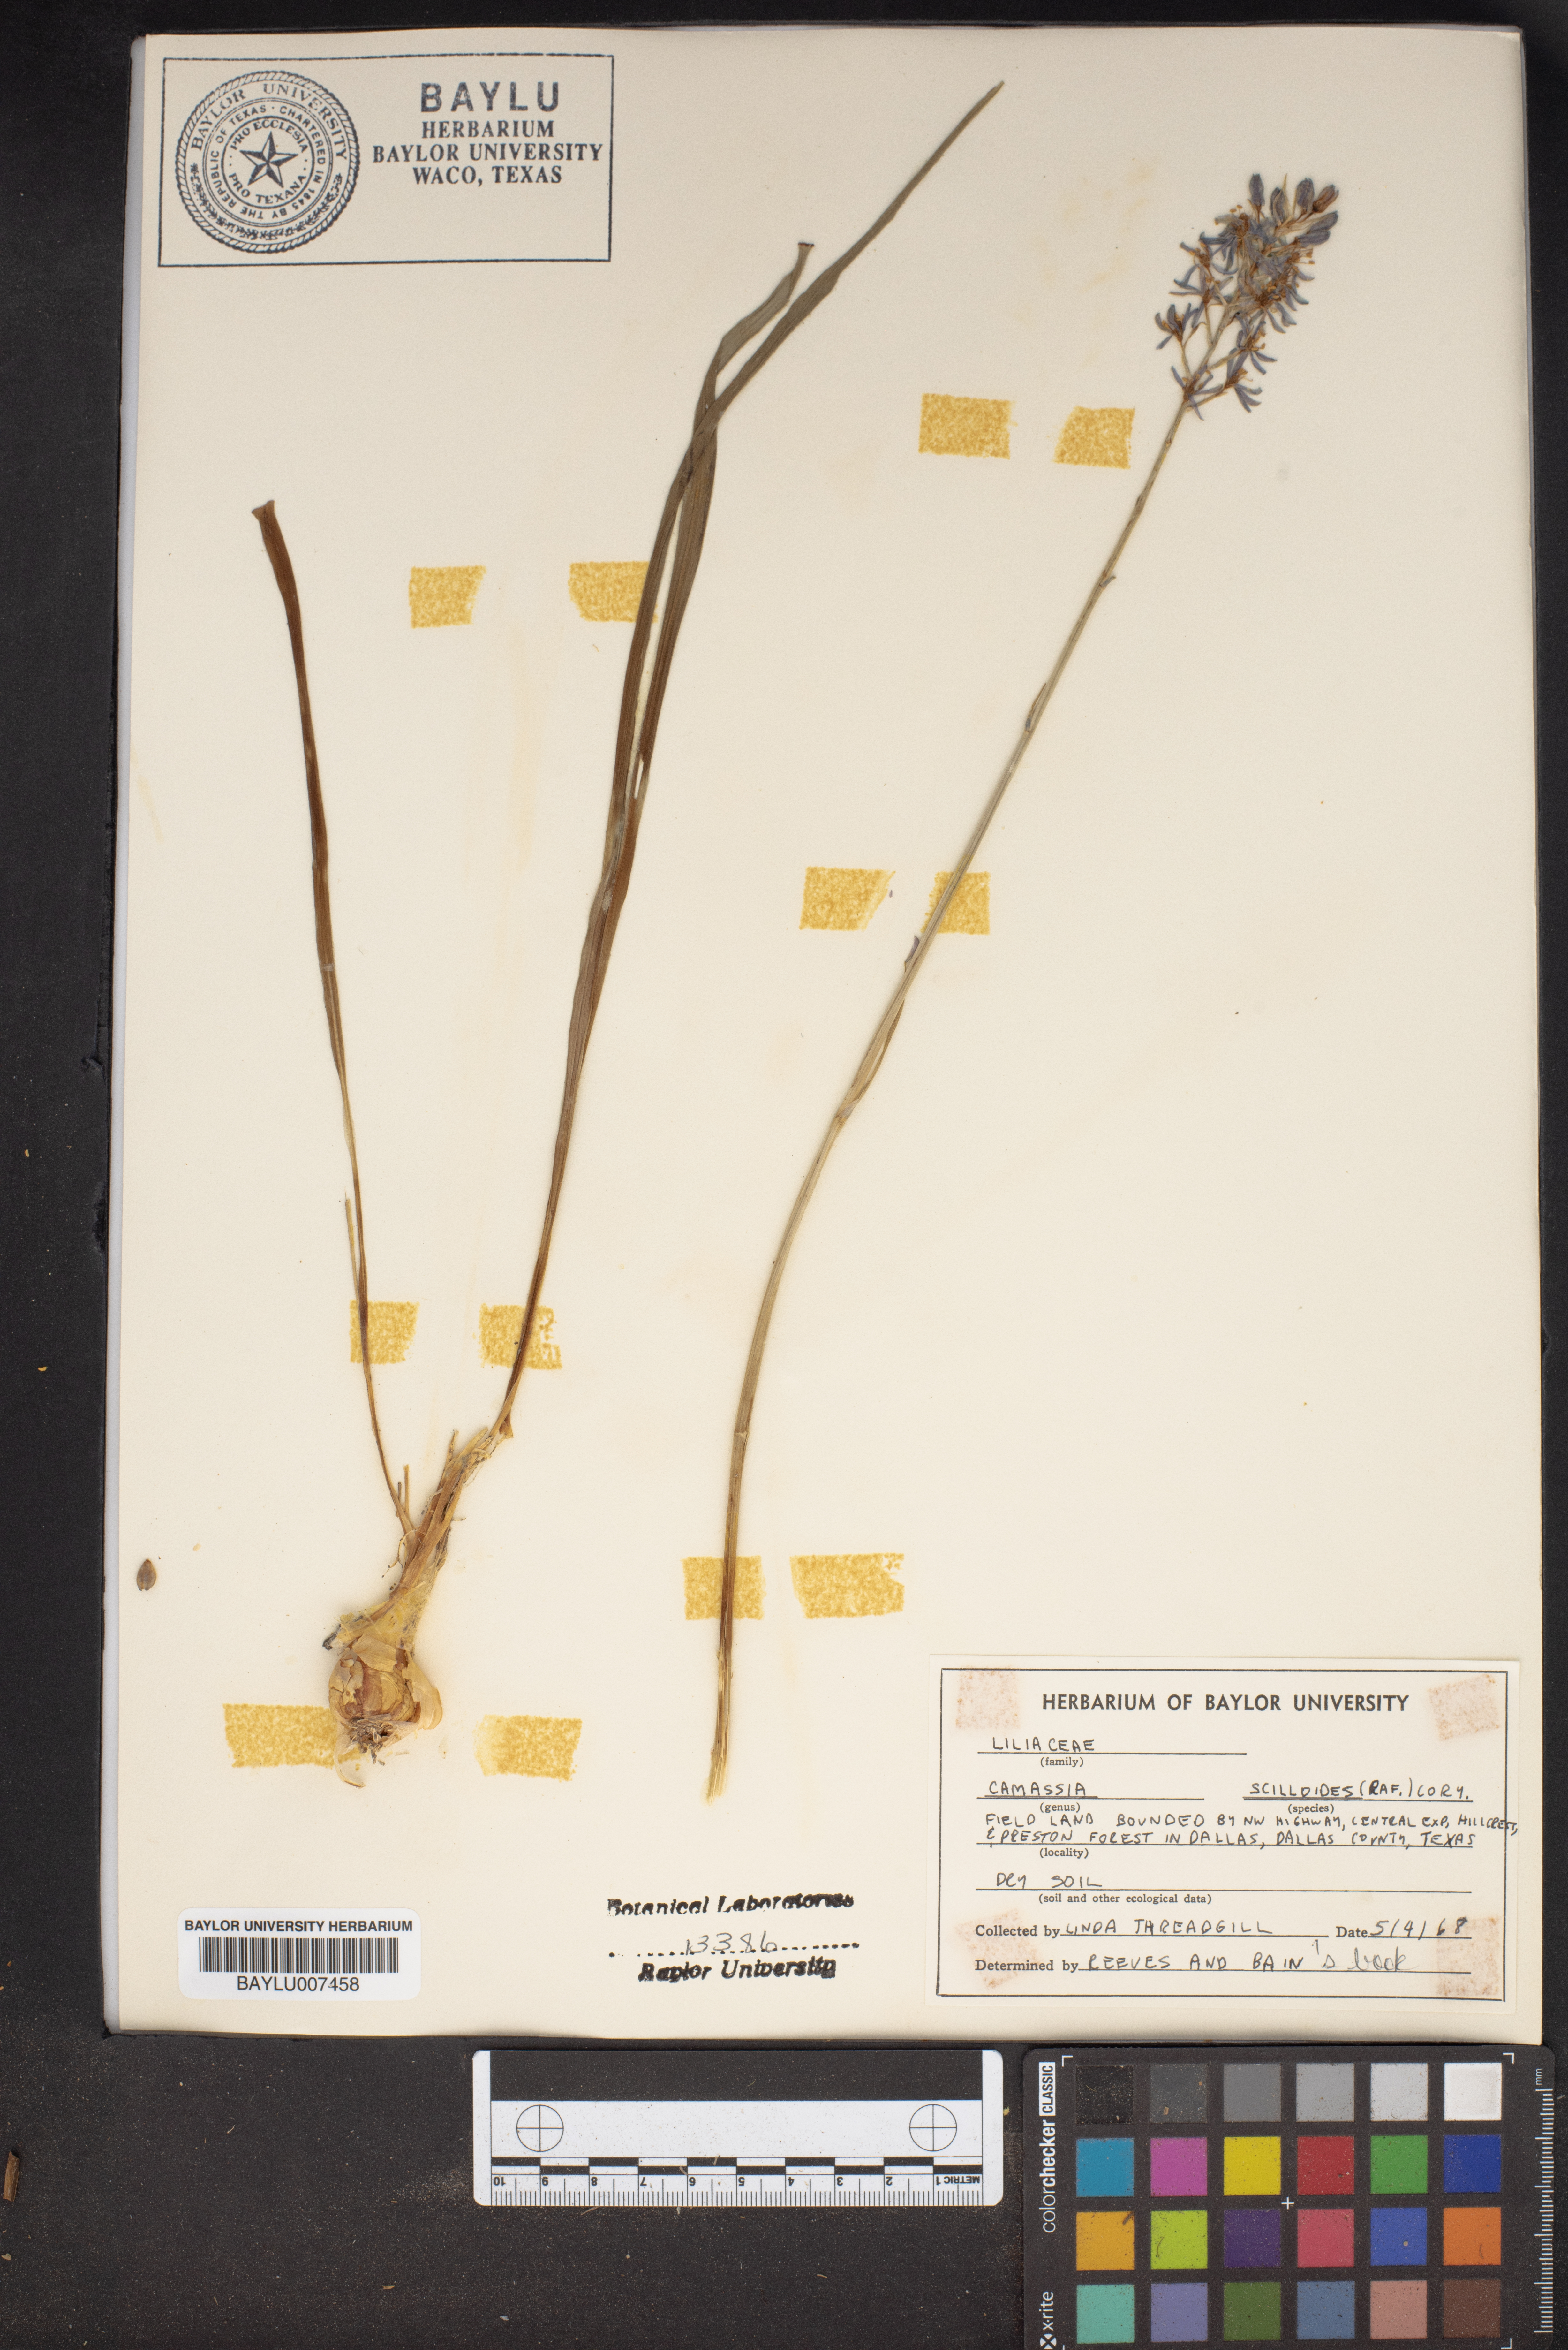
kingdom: Plantae
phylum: Tracheophyta
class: Liliopsida
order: Asparagales
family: Asparagaceae
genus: Camassia
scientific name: Camassia scilloides
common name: Wild hyacinth
